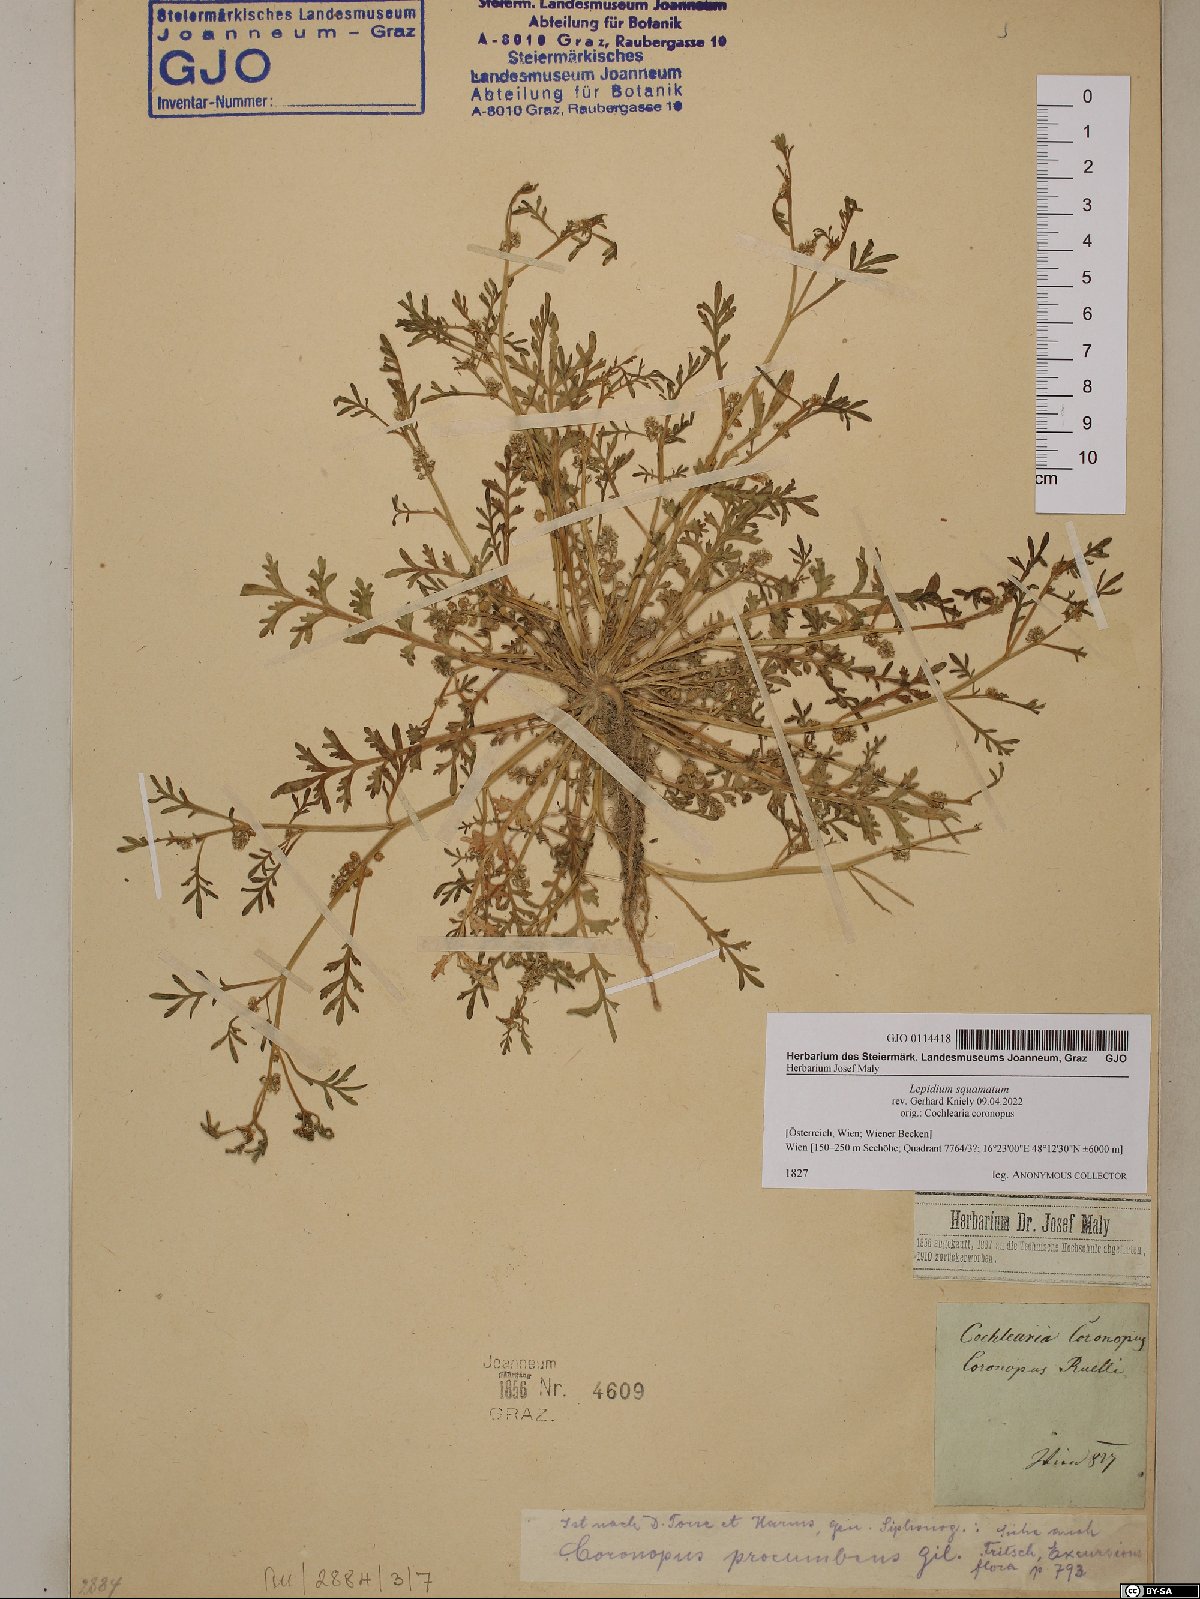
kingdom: Plantae
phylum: Tracheophyta
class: Magnoliopsida
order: Brassicales
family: Brassicaceae
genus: Lepidium
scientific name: Lepidium coronopus
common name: Greater swinecress
